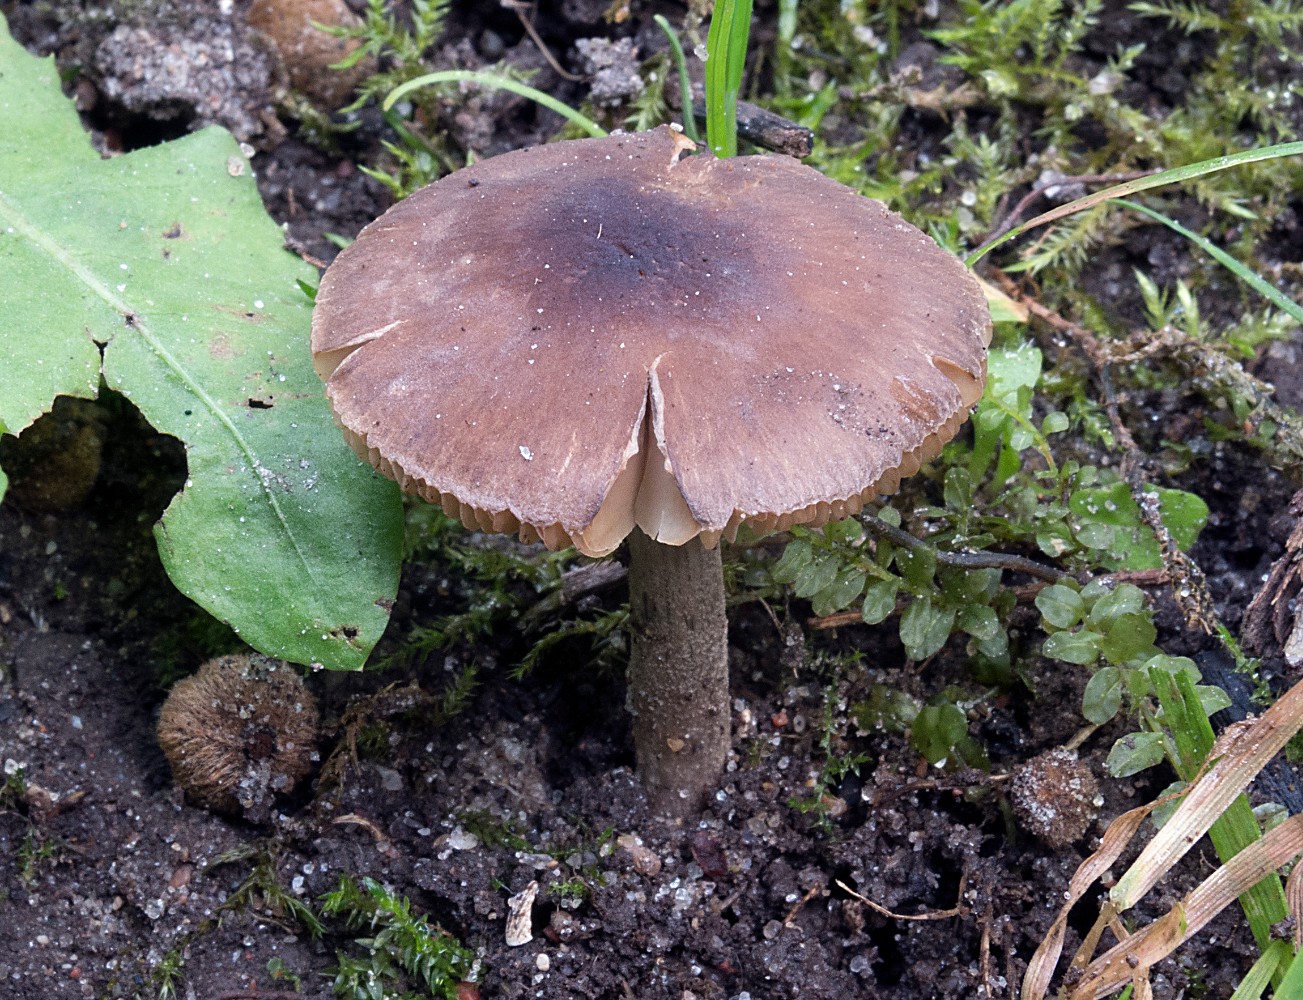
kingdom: Fungi
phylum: Basidiomycota
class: Agaricomycetes
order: Agaricales
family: Pluteaceae
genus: Pluteus
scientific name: Pluteus podospileus
